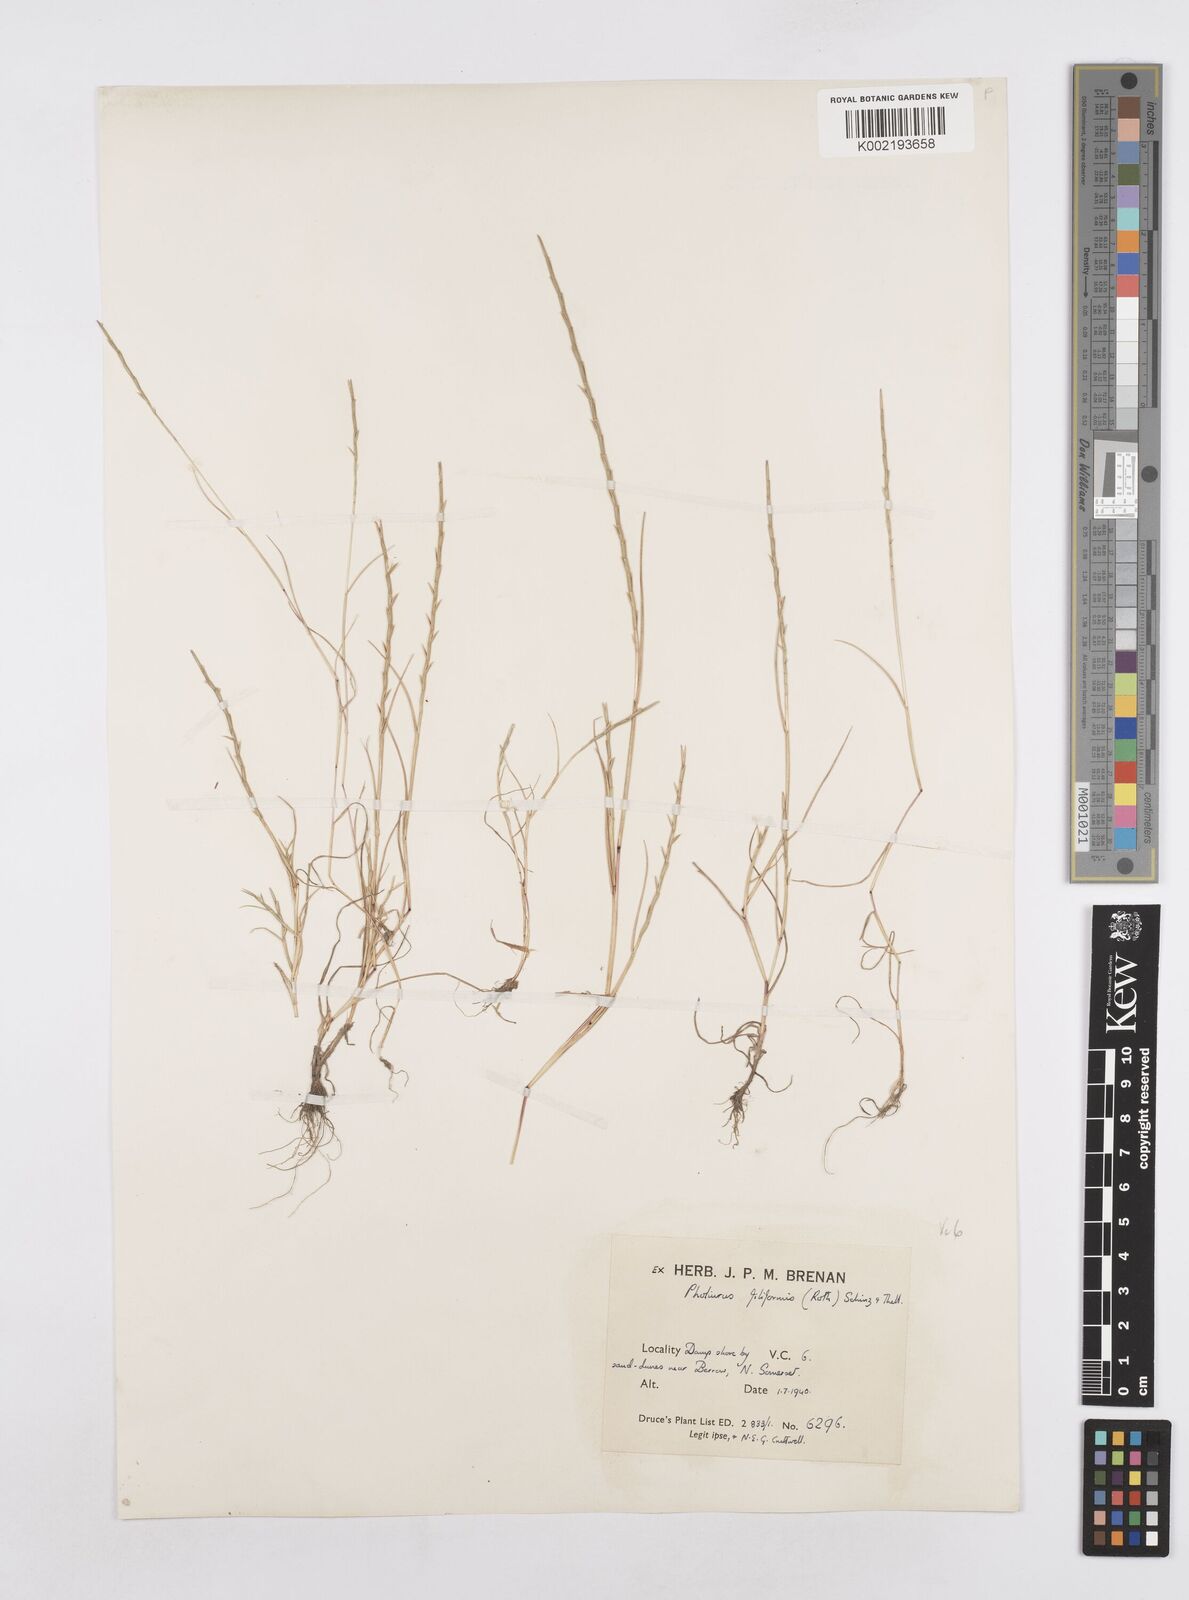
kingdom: Plantae
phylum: Tracheophyta
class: Liliopsida
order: Poales
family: Poaceae
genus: Parapholis
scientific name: Parapholis strigosa
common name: Hard-grass
